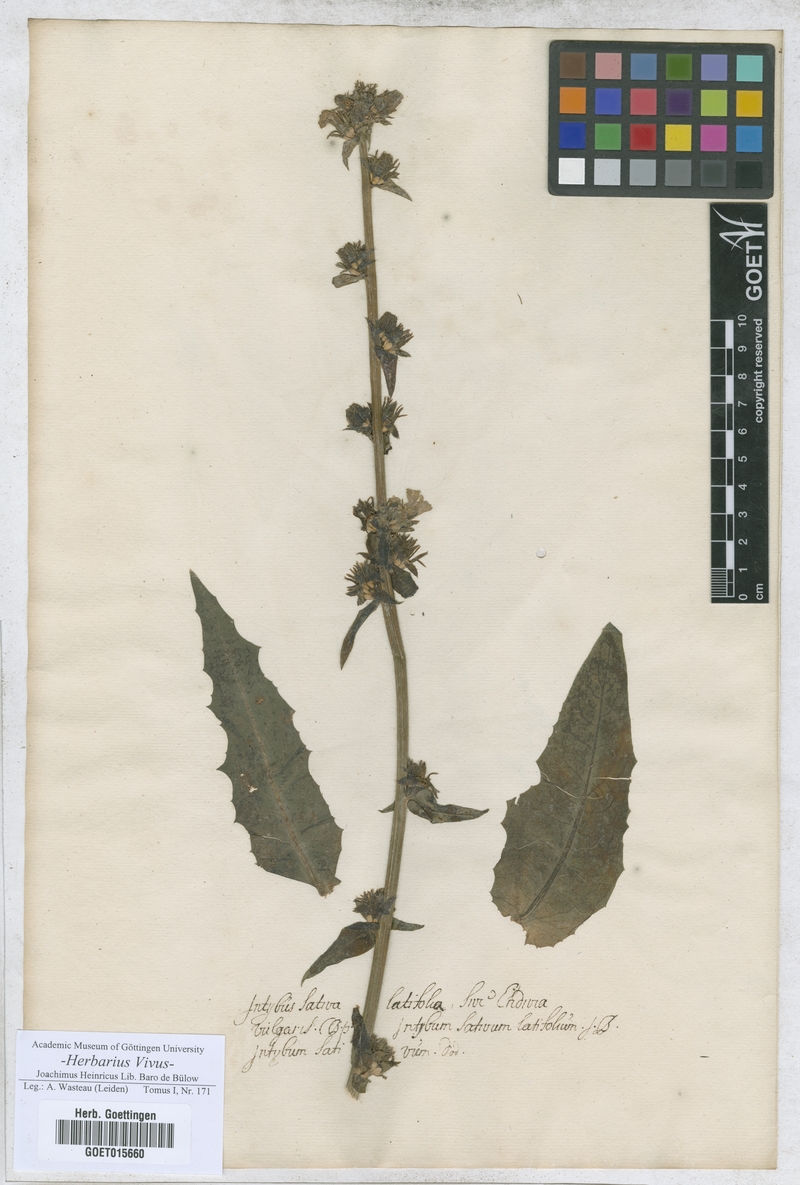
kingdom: Plantae
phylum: Tracheophyta
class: Magnoliopsida
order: Asterales
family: Asteraceae
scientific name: Asteraceae
